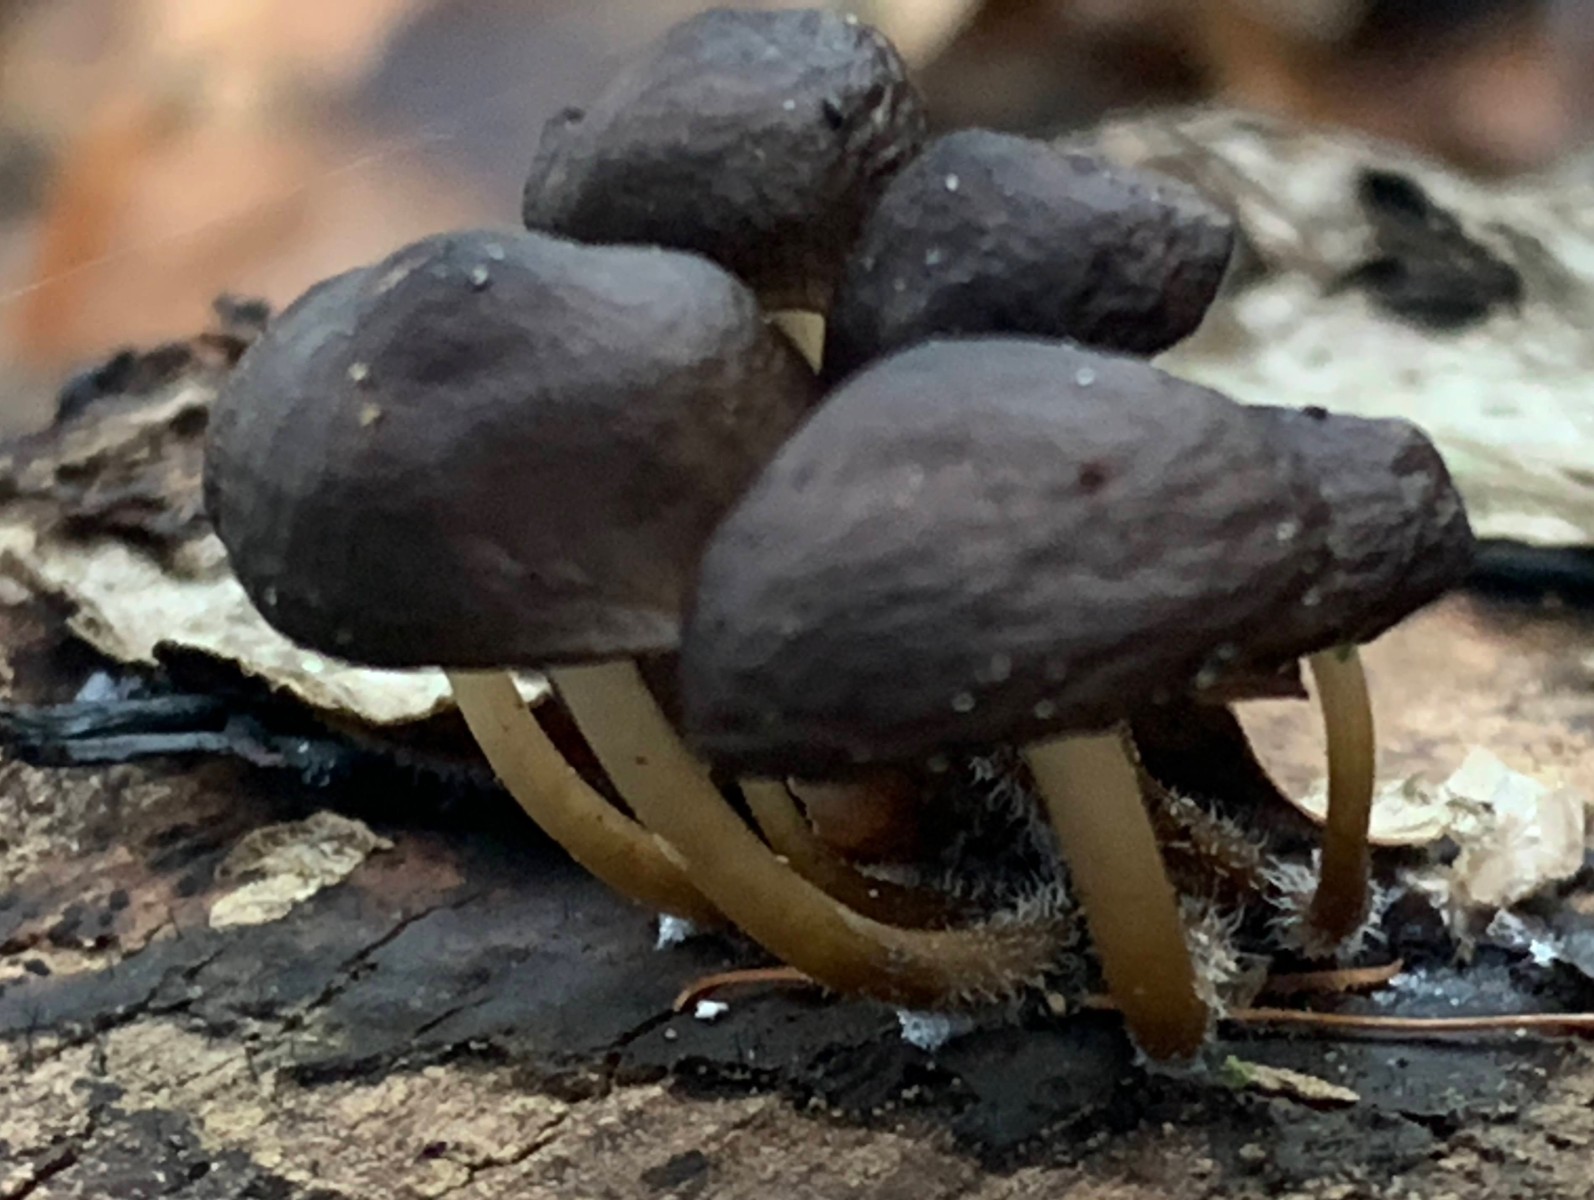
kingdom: Fungi
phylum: Basidiomycota
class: Agaricomycetes
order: Agaricales
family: Mycenaceae
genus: Mycena
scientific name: Mycena tintinnabulum
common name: vinter-huesvamp
